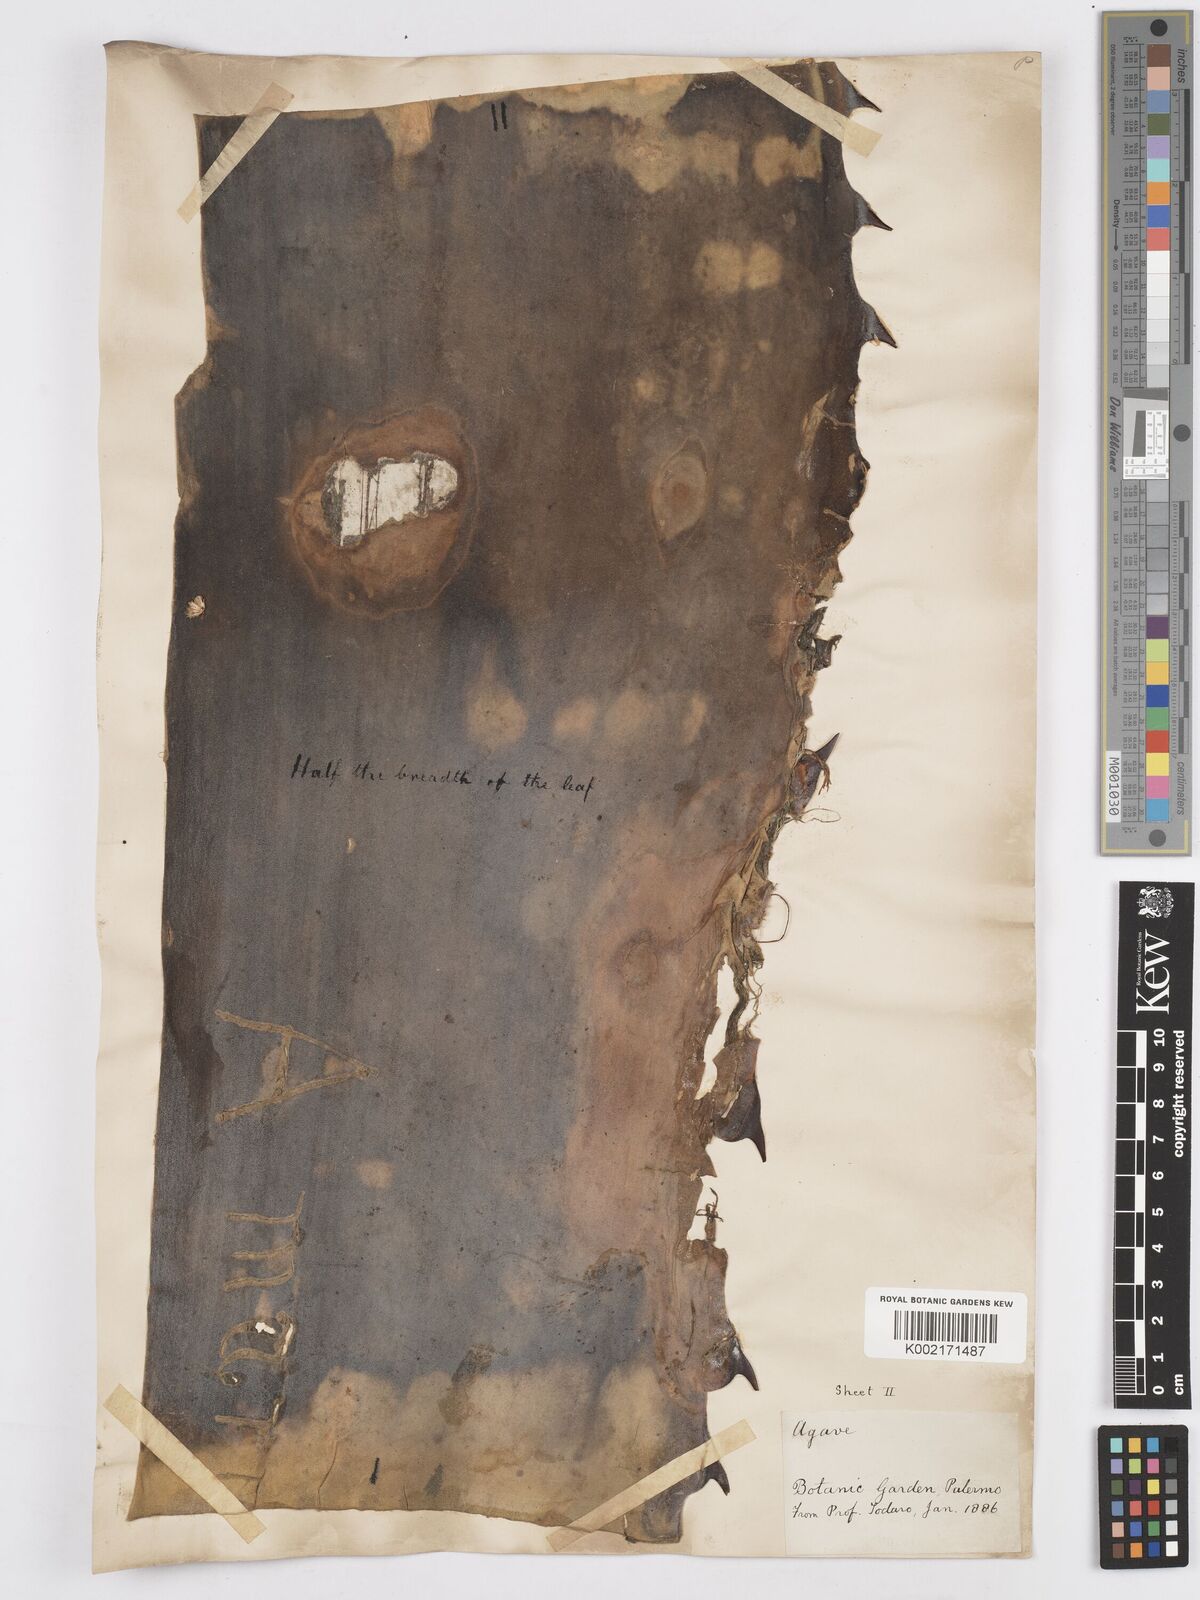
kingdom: Plantae
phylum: Tracheophyta
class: Liliopsida
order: Asparagales
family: Asparagaceae
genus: Agave
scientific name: Agave marmorata
